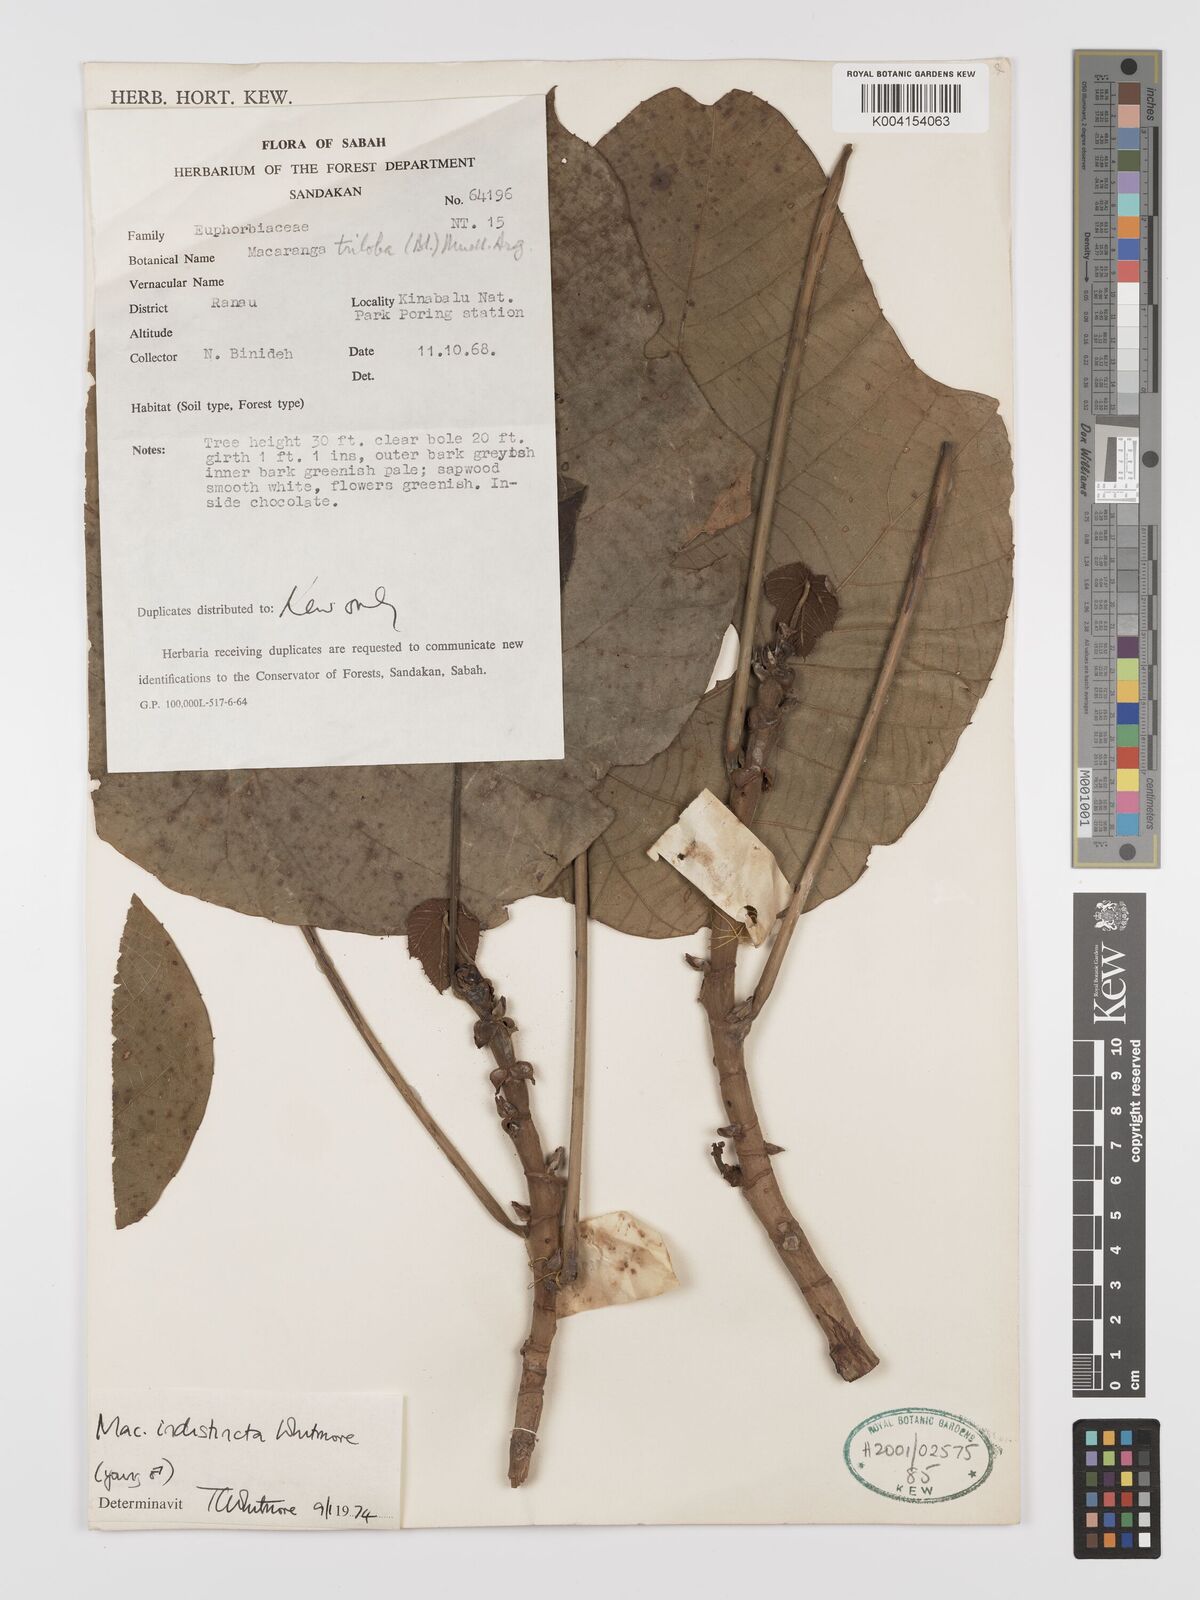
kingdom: Plantae
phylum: Tracheophyta
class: Magnoliopsida
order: Malpighiales
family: Euphorbiaceae
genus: Macaranga
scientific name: Macaranga indistincta
